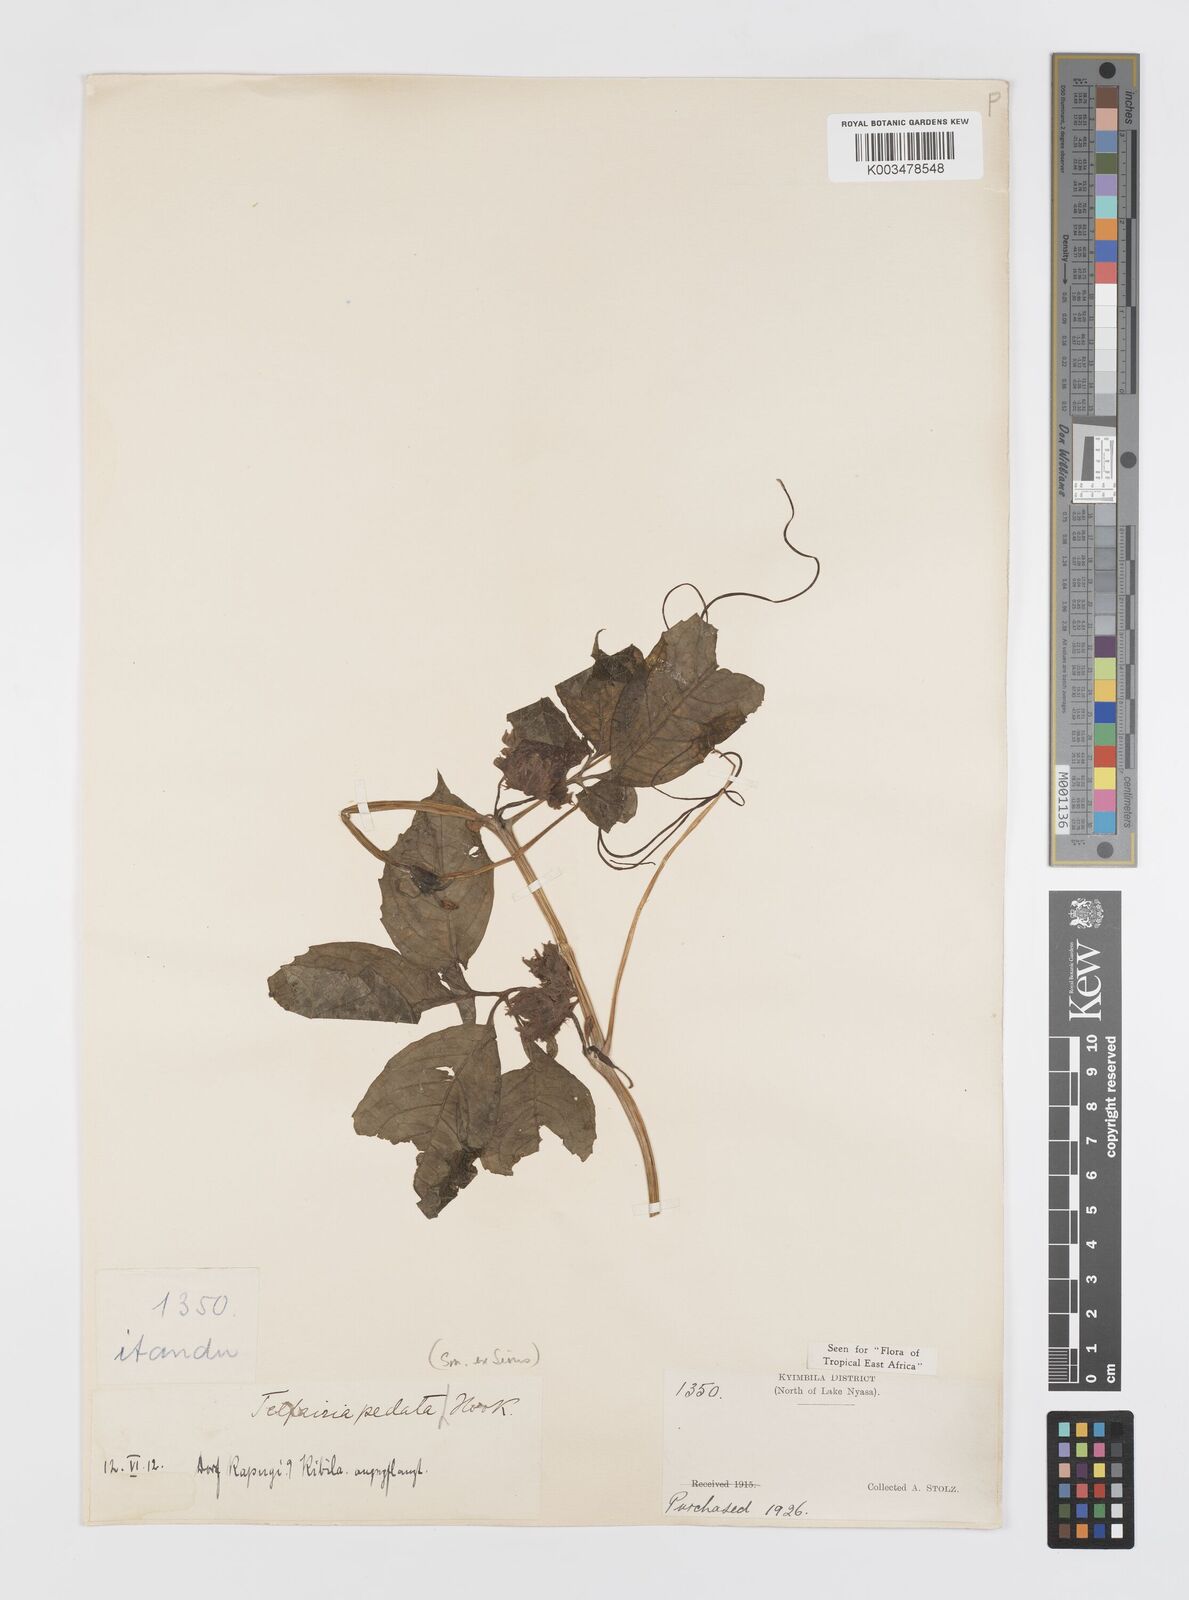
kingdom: Plantae
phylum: Tracheophyta
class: Magnoliopsida
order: Cucurbitales
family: Cucurbitaceae
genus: Telfairia
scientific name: Telfairia pedata
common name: Zanzibar oilvine
